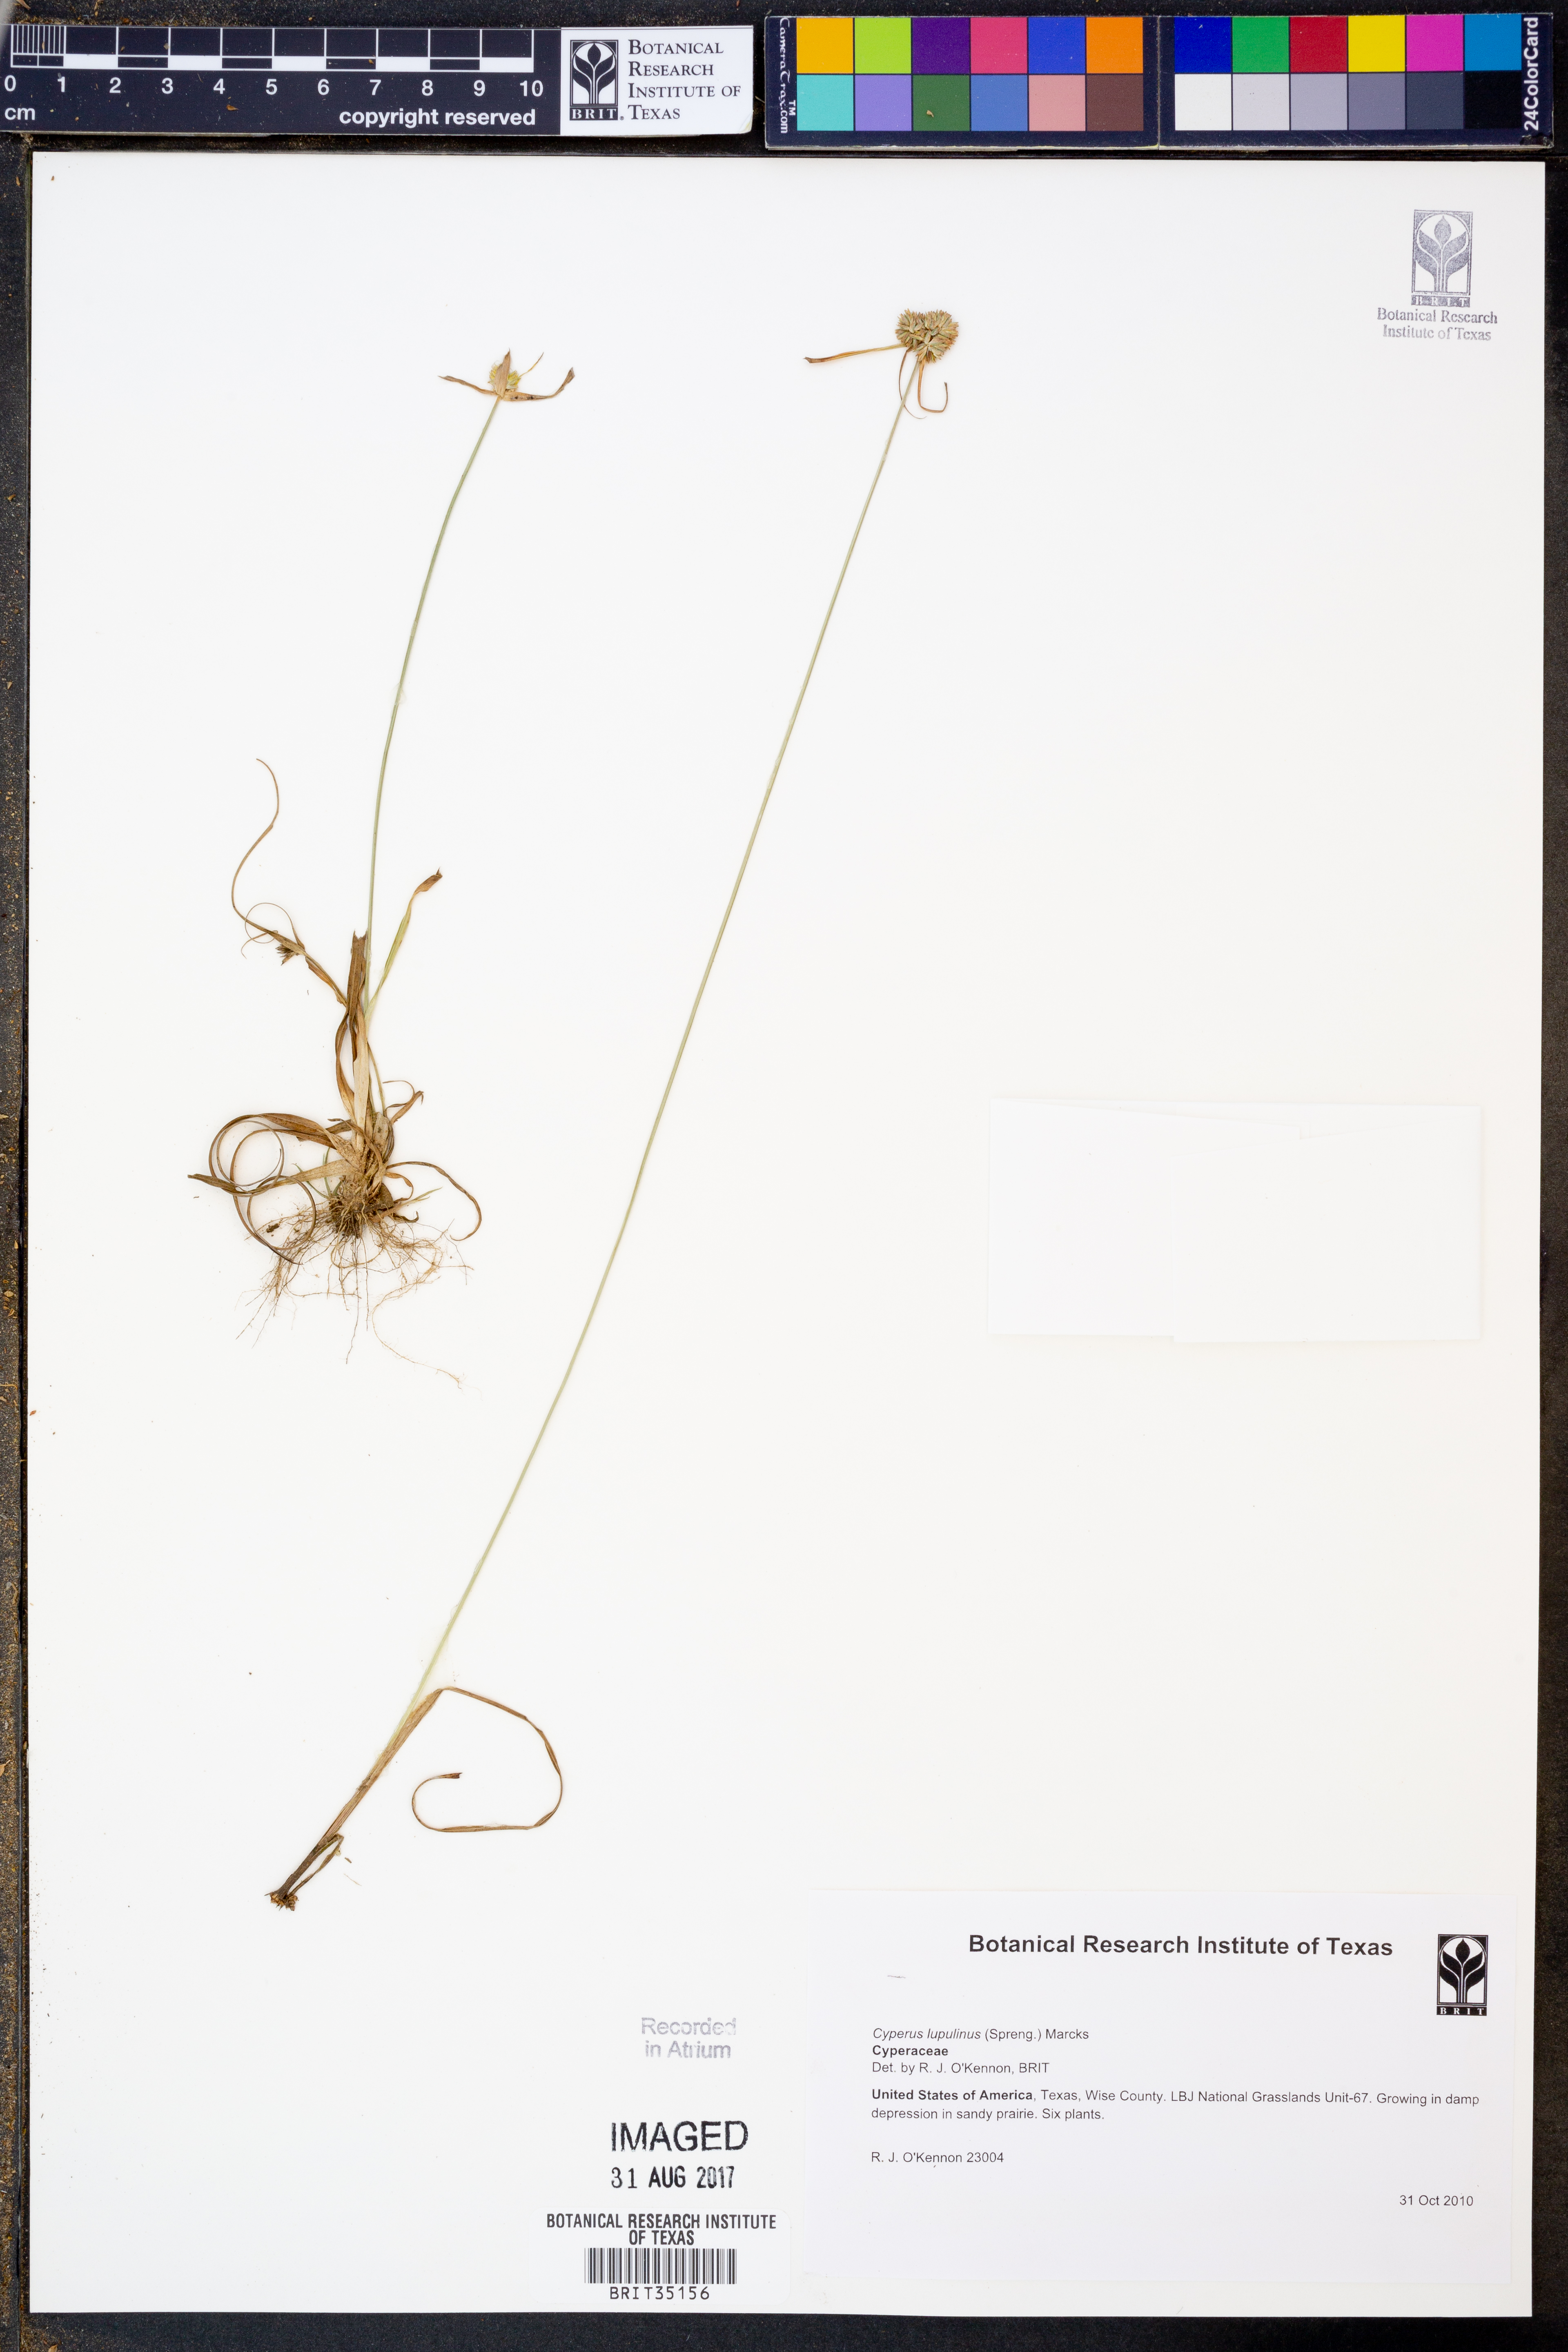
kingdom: Plantae
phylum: Tracheophyta
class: Liliopsida
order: Poales
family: Cyperaceae
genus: Cyperus
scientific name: Cyperus lupulinus
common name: Great plains flatsedge
